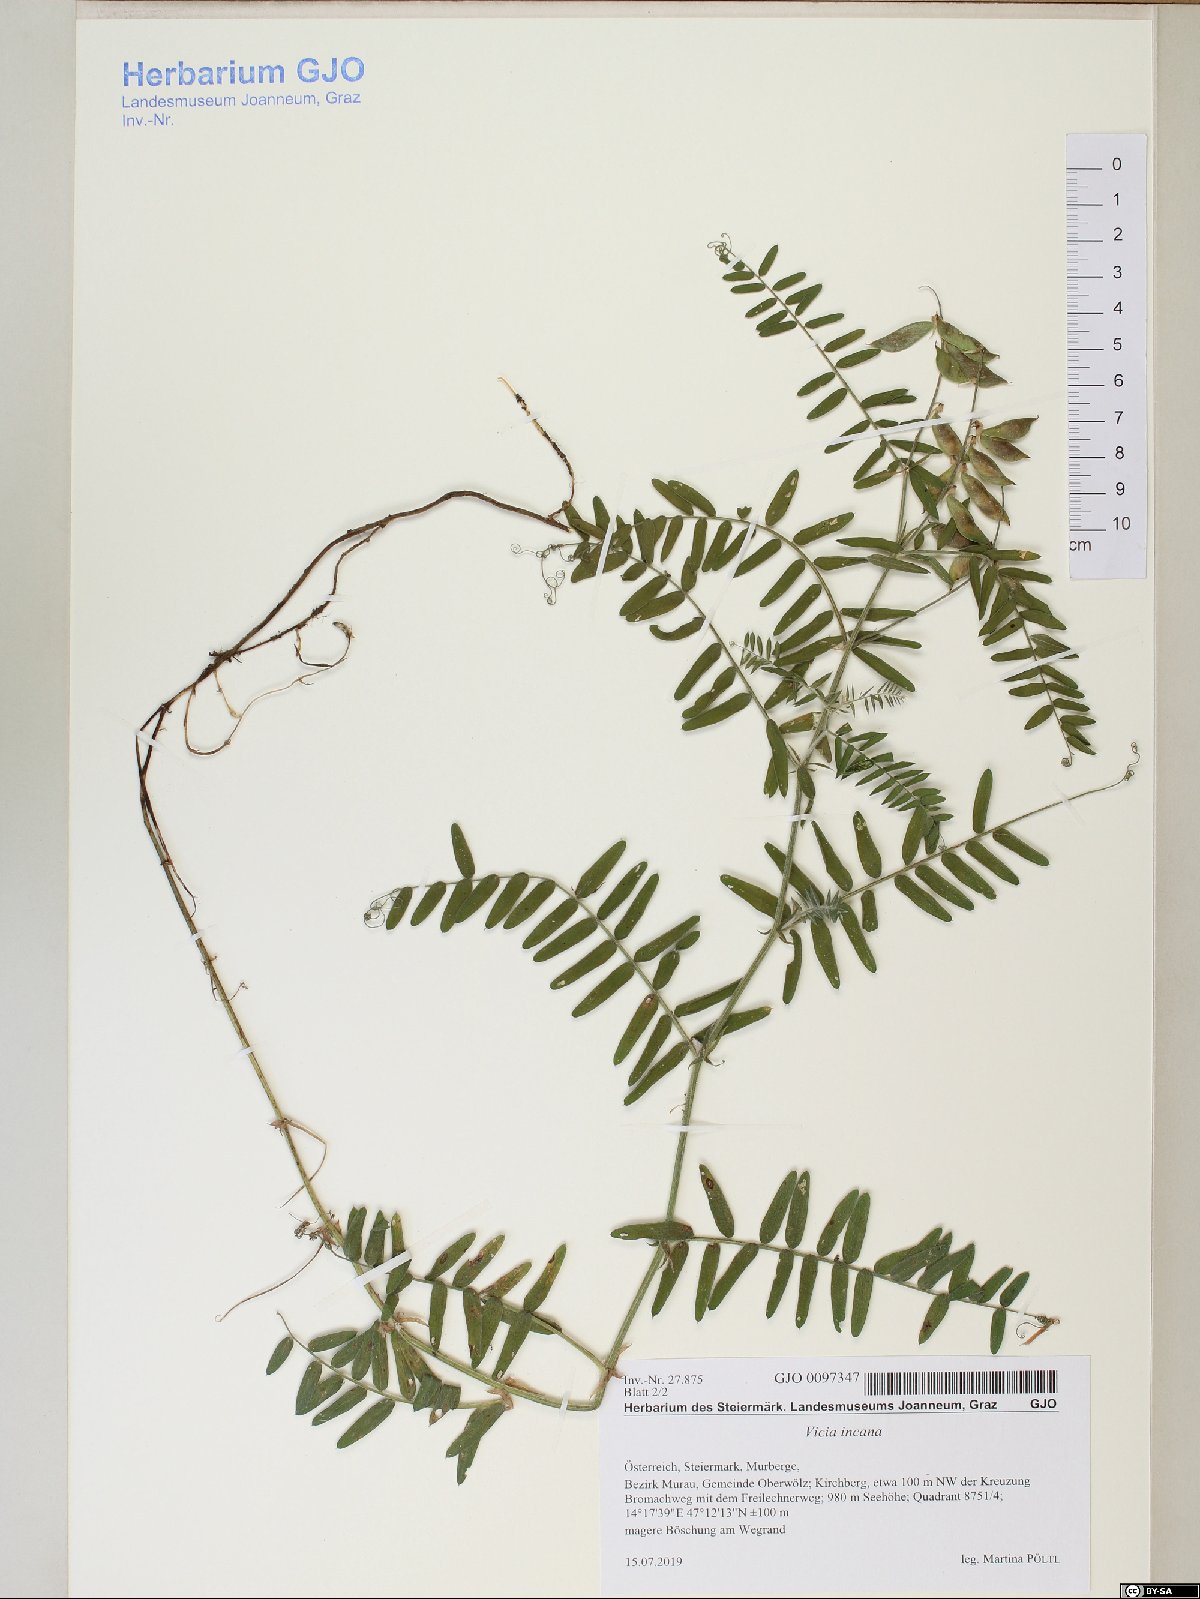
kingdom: Plantae
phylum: Tracheophyta
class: Magnoliopsida
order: Fabales
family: Fabaceae
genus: Vicia
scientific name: Vicia incana
